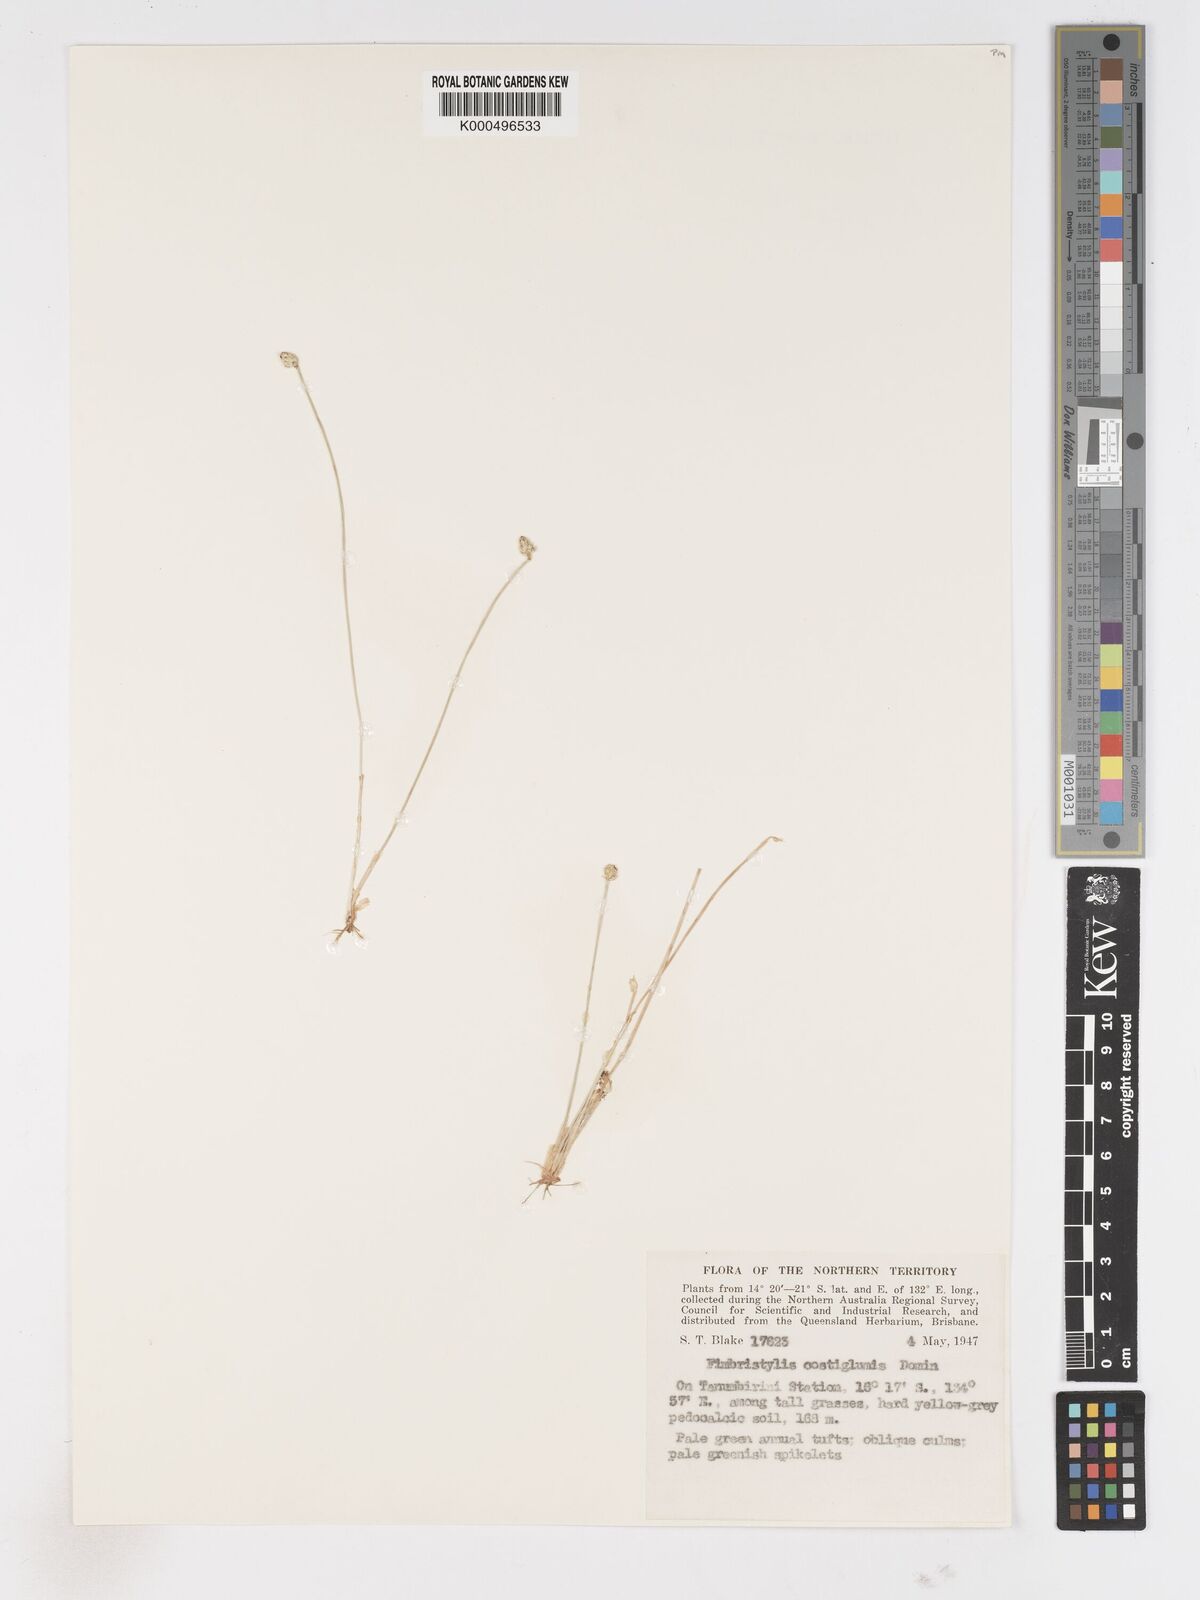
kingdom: Plantae
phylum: Tracheophyta
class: Liliopsida
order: Poales
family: Cyperaceae
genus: Fimbristylis
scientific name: Fimbristylis costiglumis
